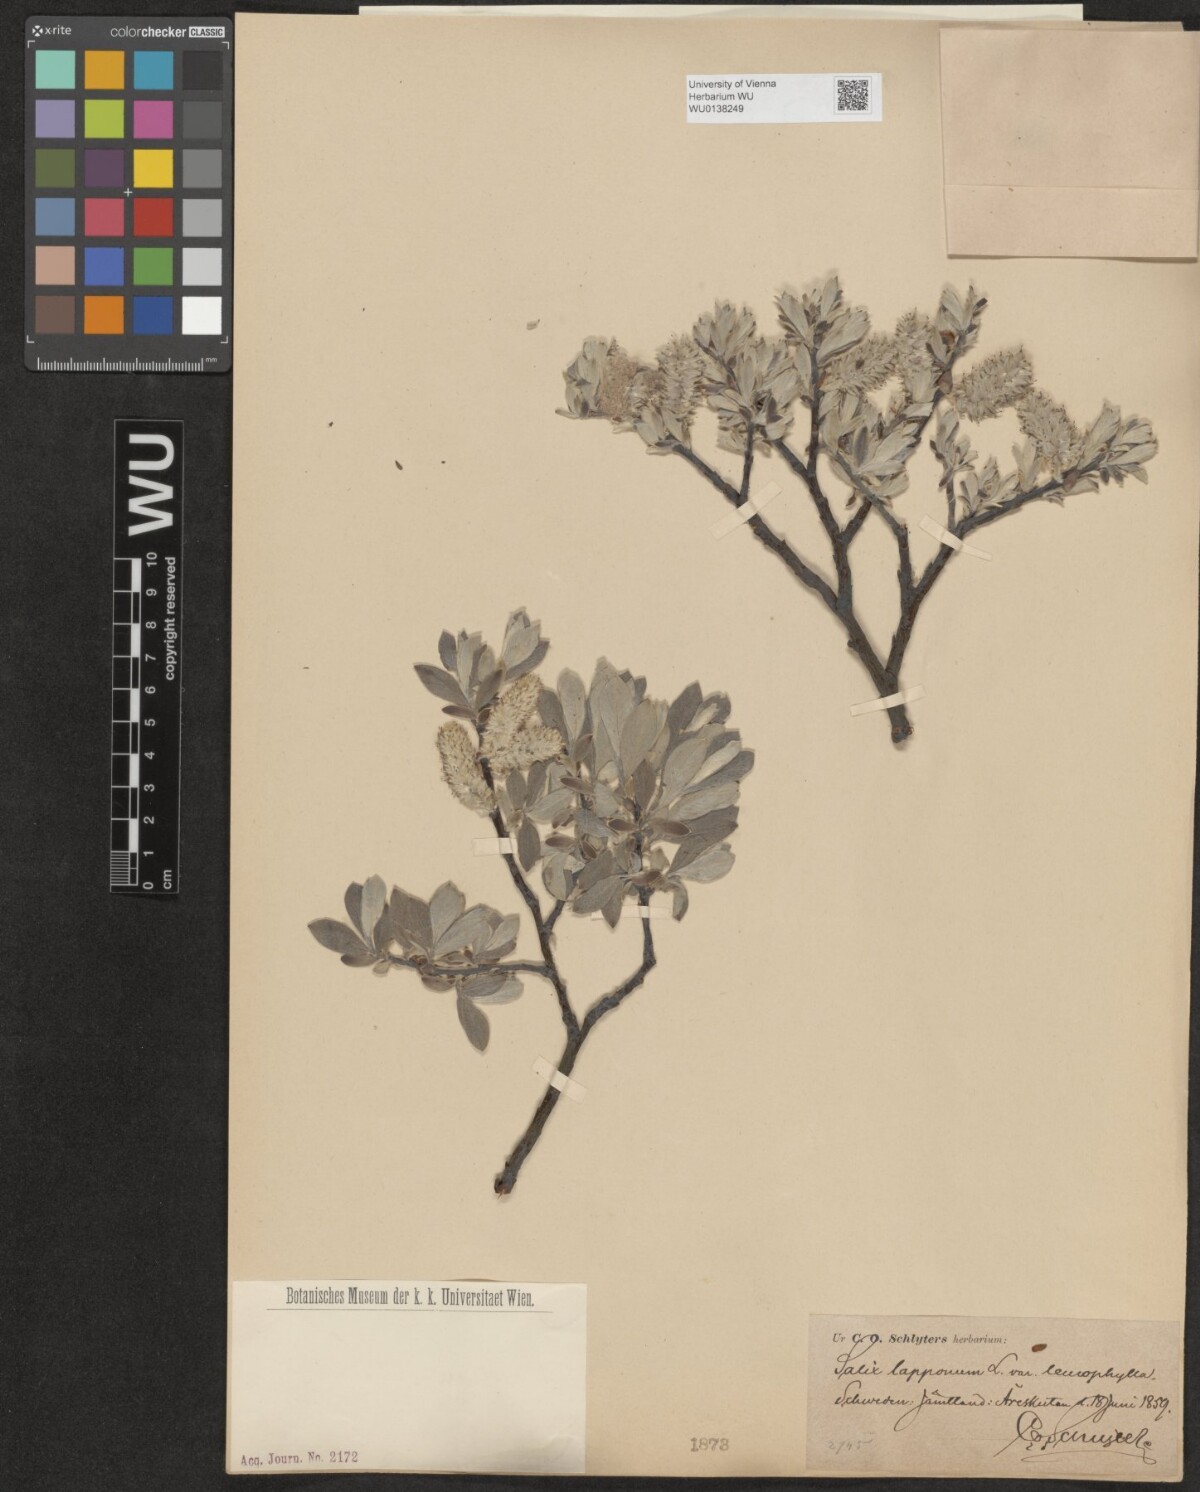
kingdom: Plantae
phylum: Tracheophyta
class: Magnoliopsida
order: Malpighiales
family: Salicaceae
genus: Salix
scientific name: Salix lapponum
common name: Downy willow
